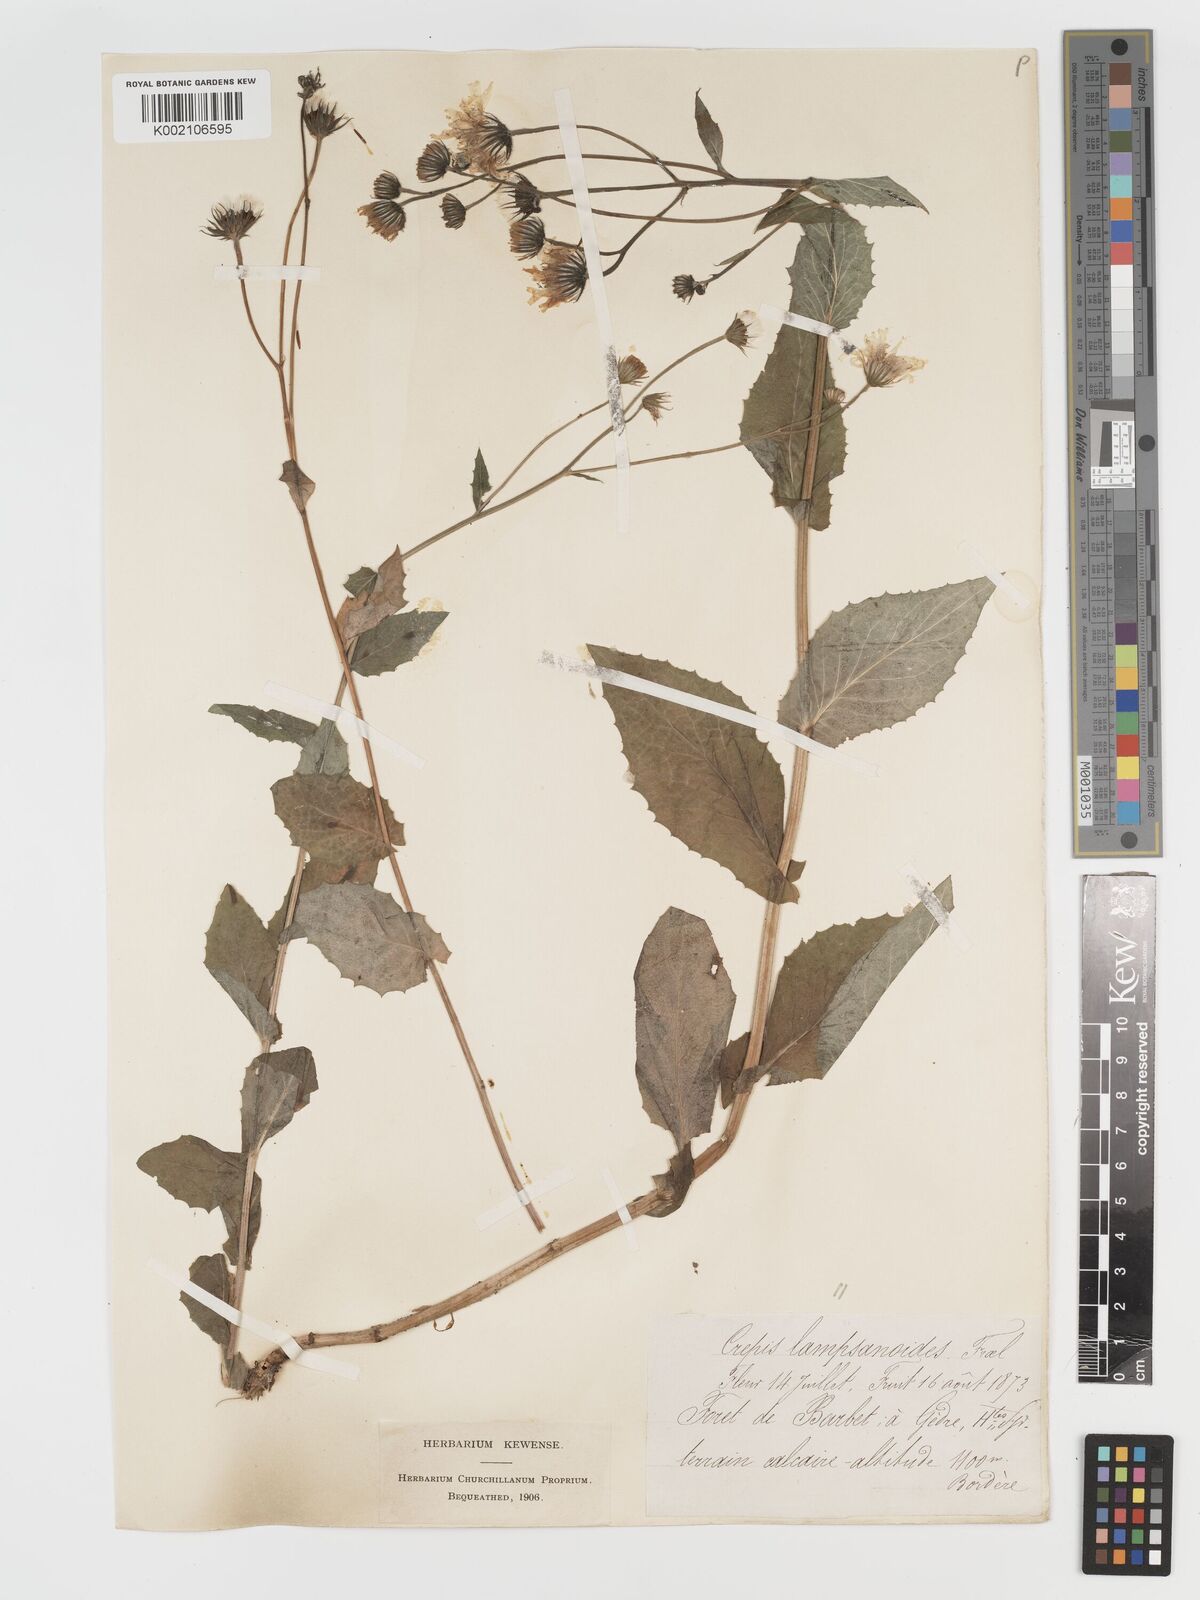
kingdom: Plantae
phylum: Tracheophyta
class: Magnoliopsida
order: Asterales
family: Asteraceae
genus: Crepis
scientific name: Crepis lampsanoides
